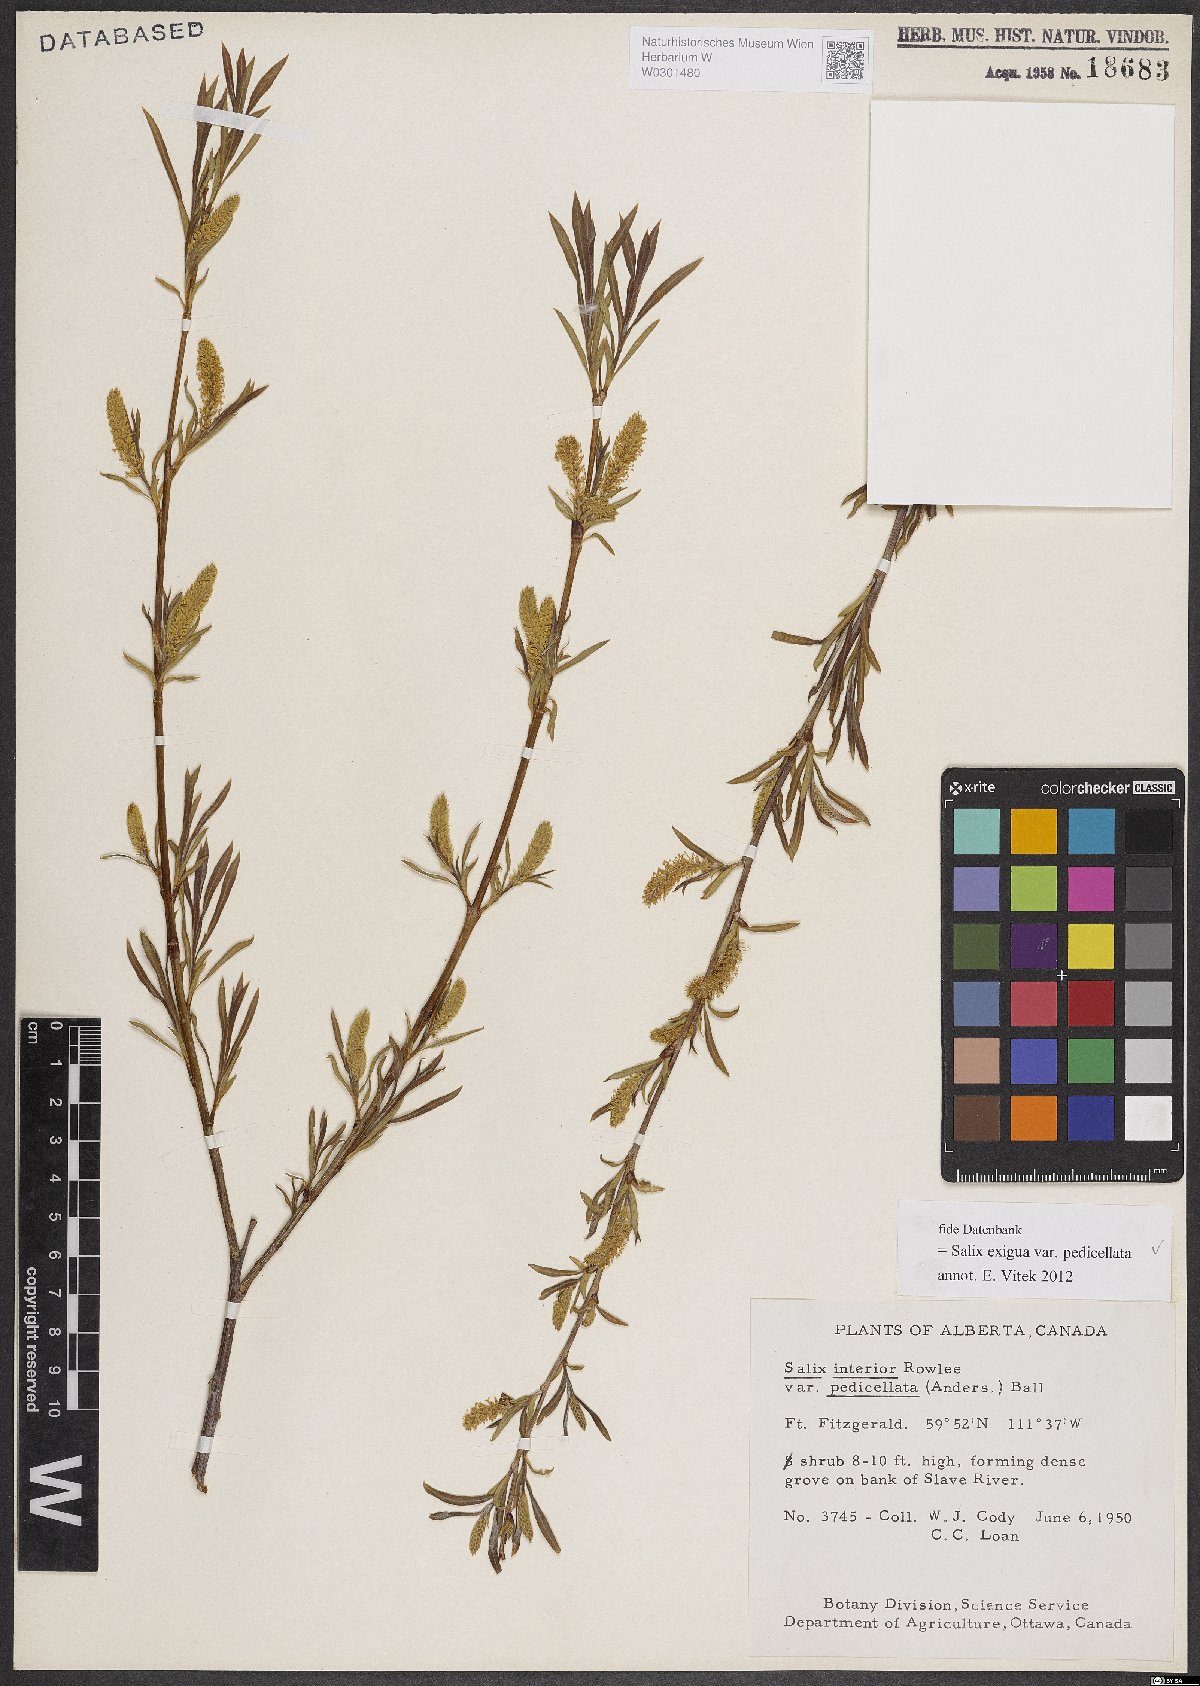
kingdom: Plantae
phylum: Tracheophyta
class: Magnoliopsida
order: Malpighiales
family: Salicaceae
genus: Salix
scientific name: Salix interior
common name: Sandbar willow
